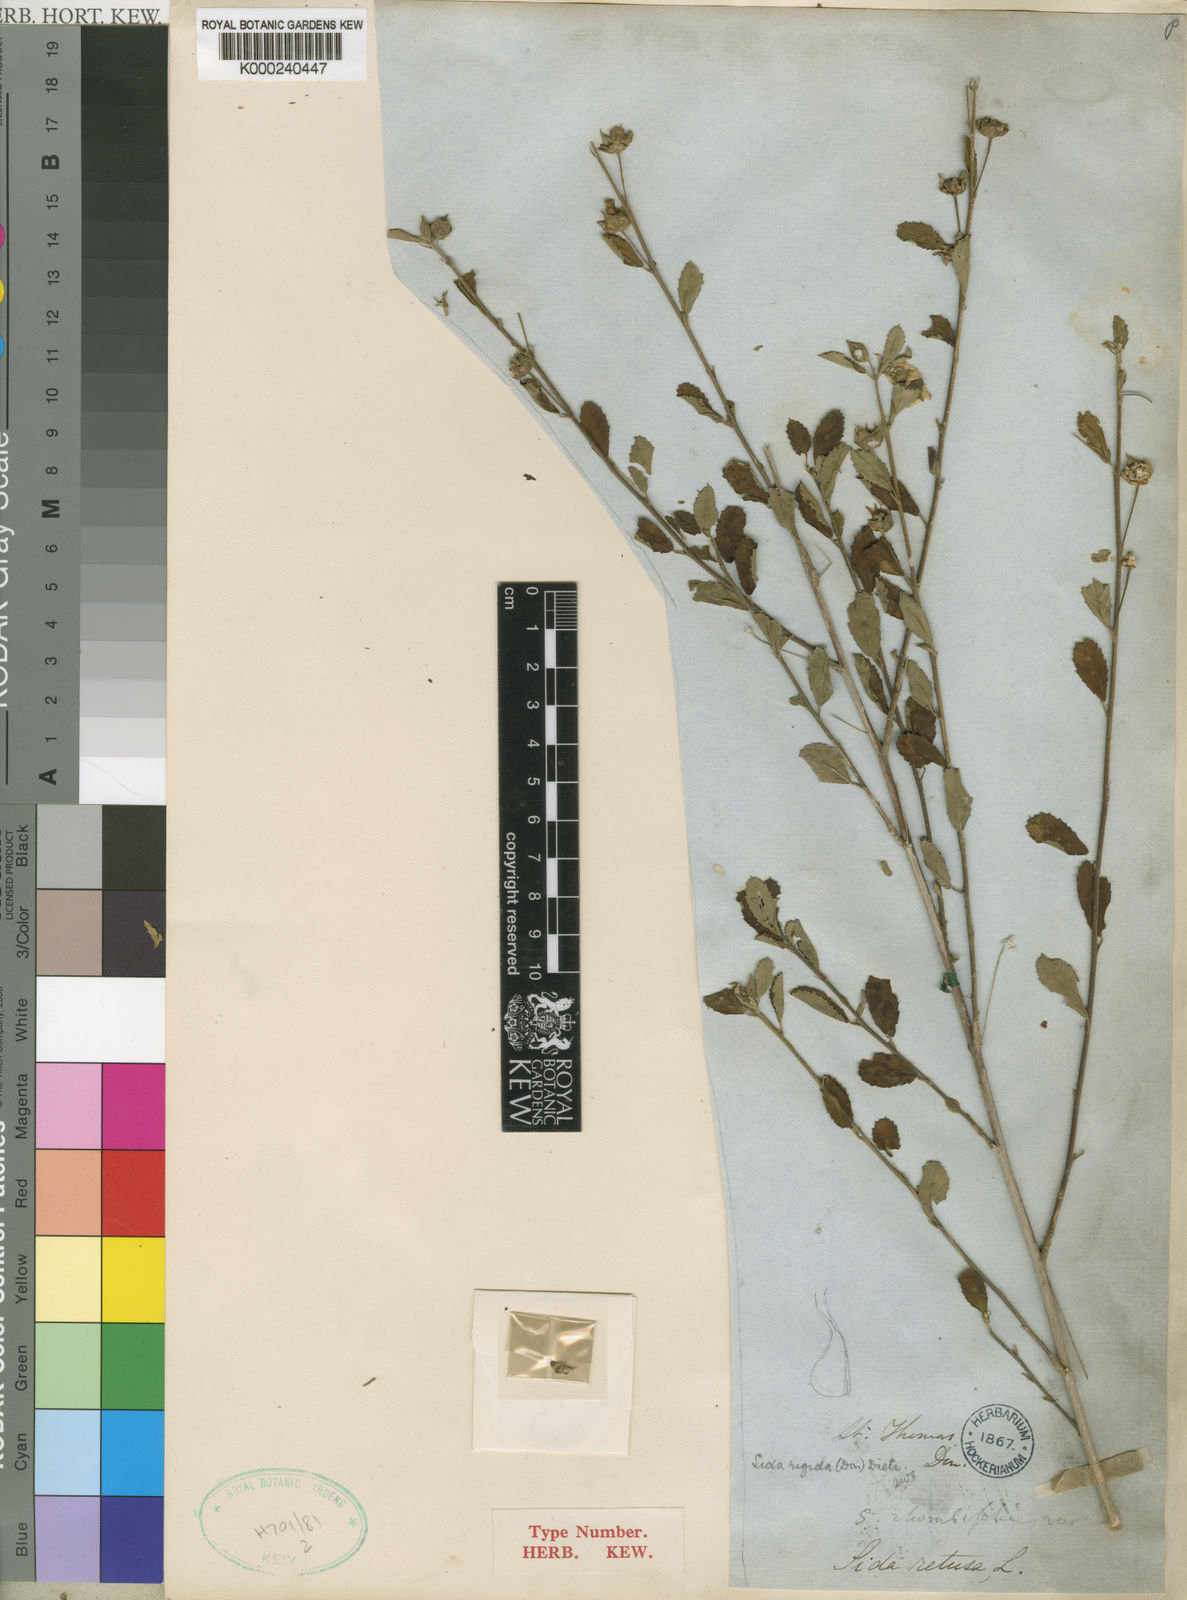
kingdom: Plantae
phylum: Tracheophyta
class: Magnoliopsida
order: Malvales
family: Malvaceae
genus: Sida
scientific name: Sida rigida
